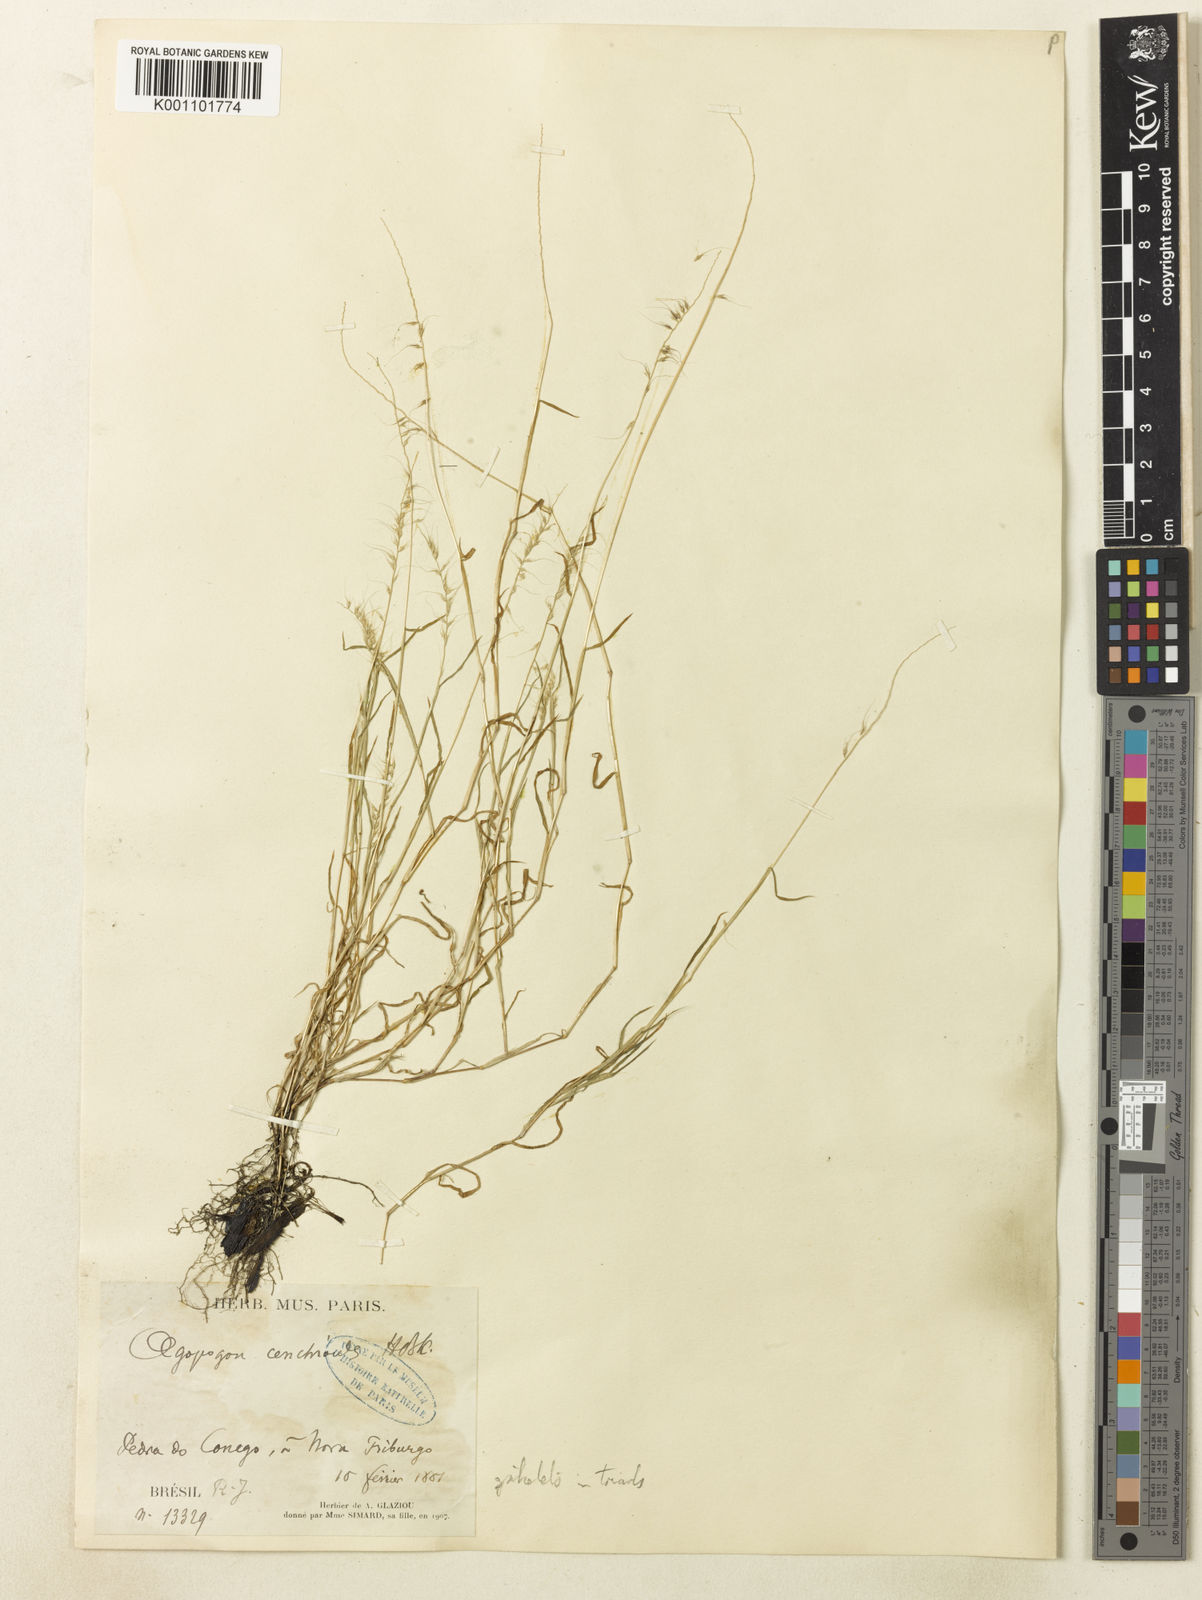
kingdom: Plantae
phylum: Tracheophyta
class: Liliopsida
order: Poales
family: Poaceae
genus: Muhlenbergia
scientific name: Muhlenbergia
